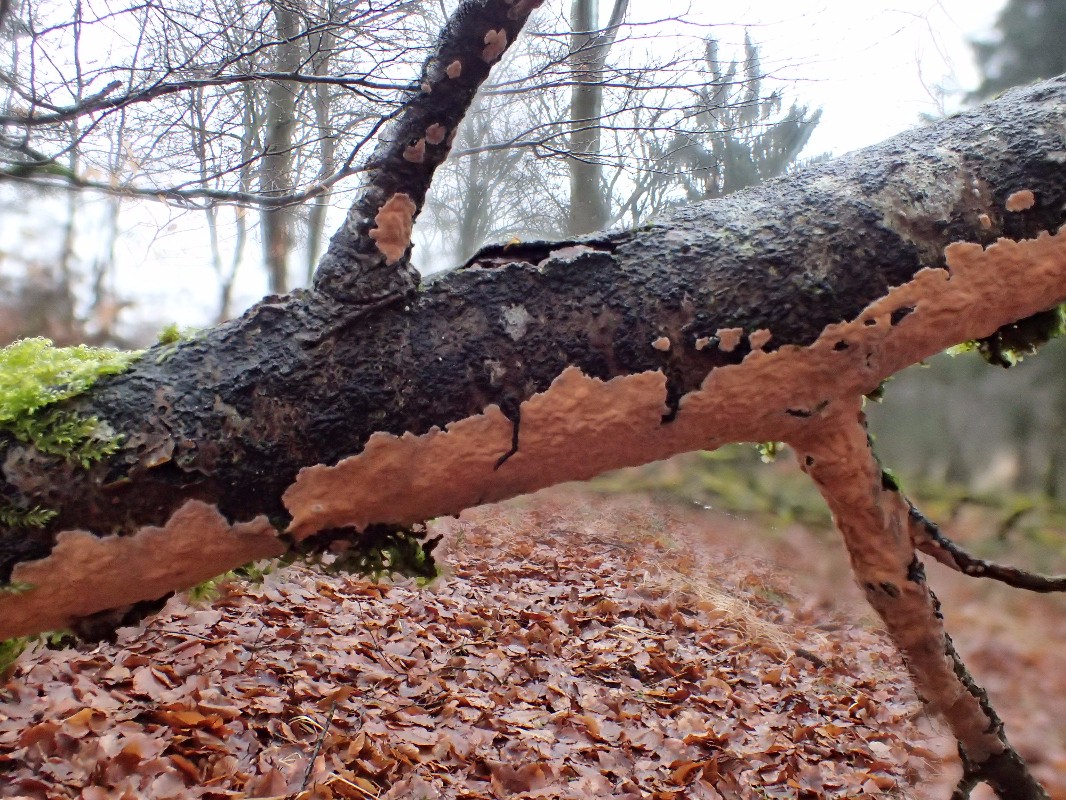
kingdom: Fungi
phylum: Basidiomycota
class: Agaricomycetes
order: Russulales
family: Peniophoraceae
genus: Peniophora
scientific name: Peniophora incarnata
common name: laksefarvet voksskind
